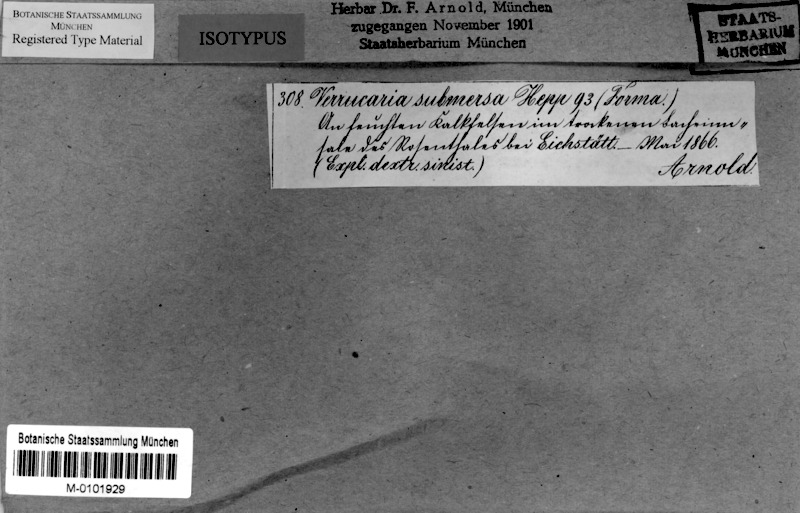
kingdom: Fungi
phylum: Ascomycota
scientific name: Ascomycota
